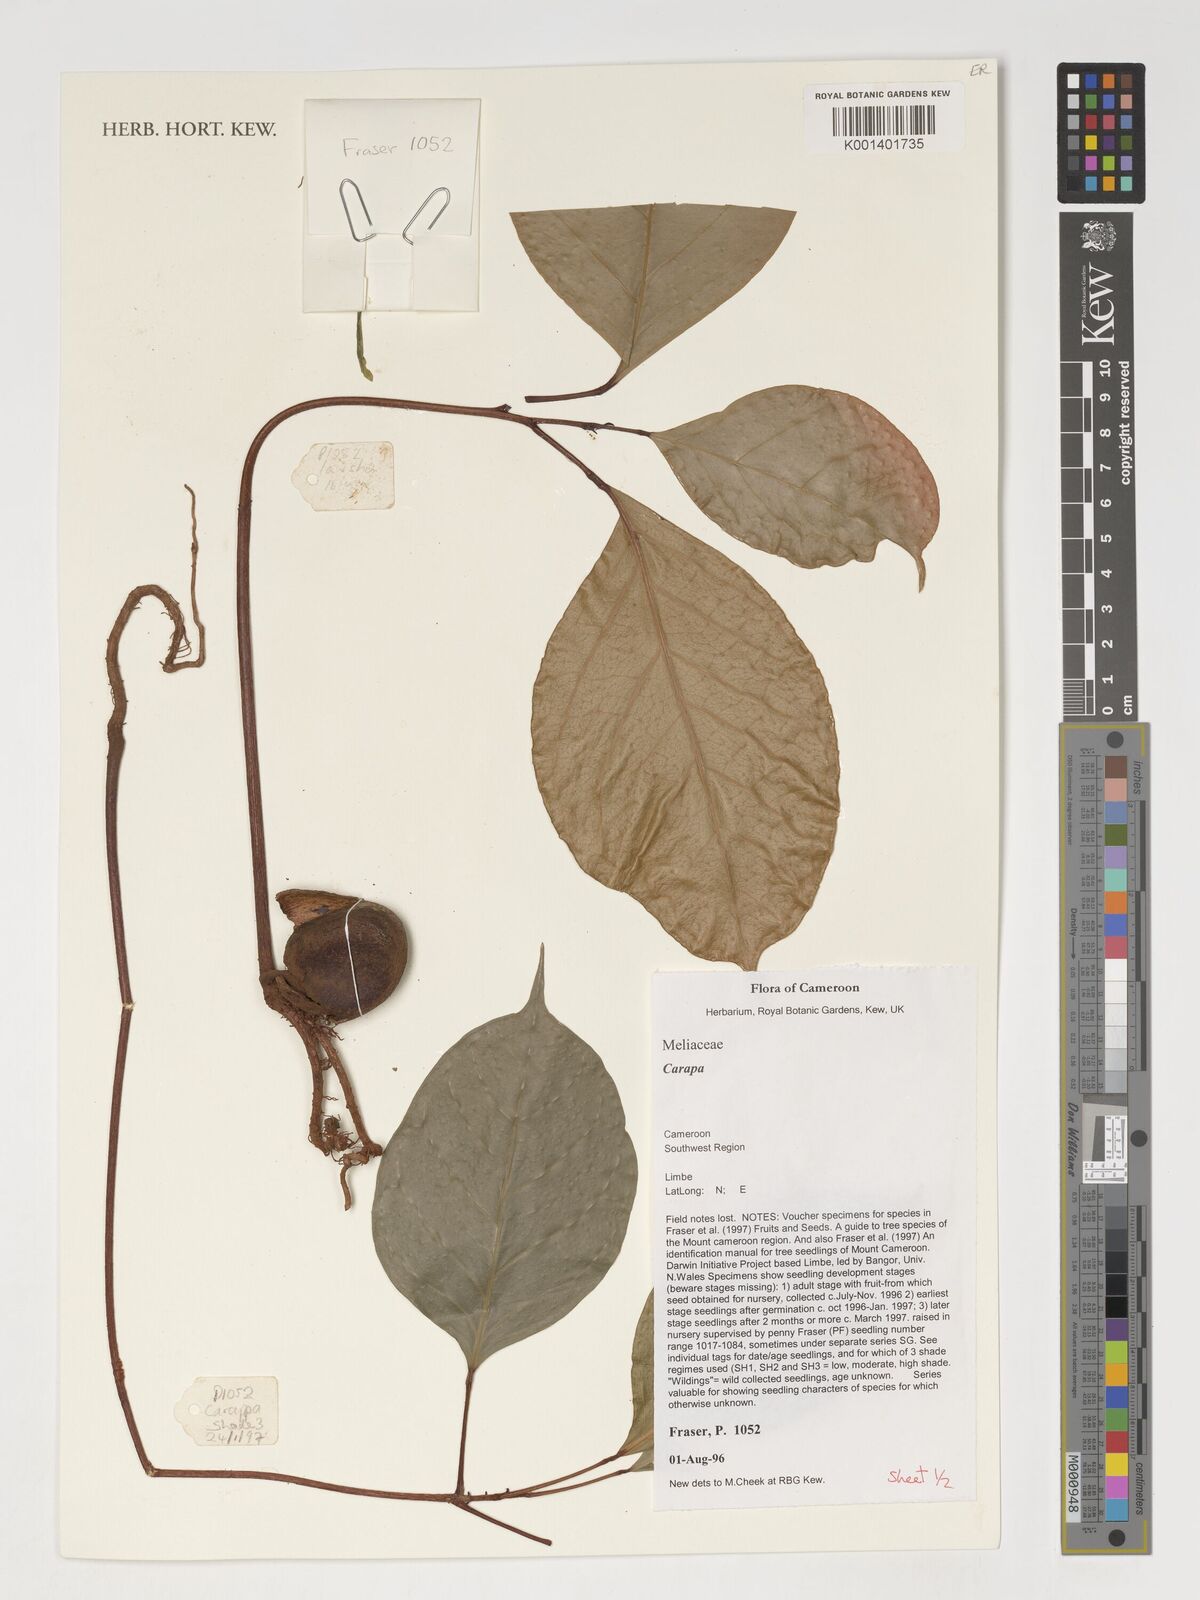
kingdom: Plantae
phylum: Tracheophyta
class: Magnoliopsida
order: Sapindales
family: Meliaceae
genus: Carapa
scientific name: Carapa
